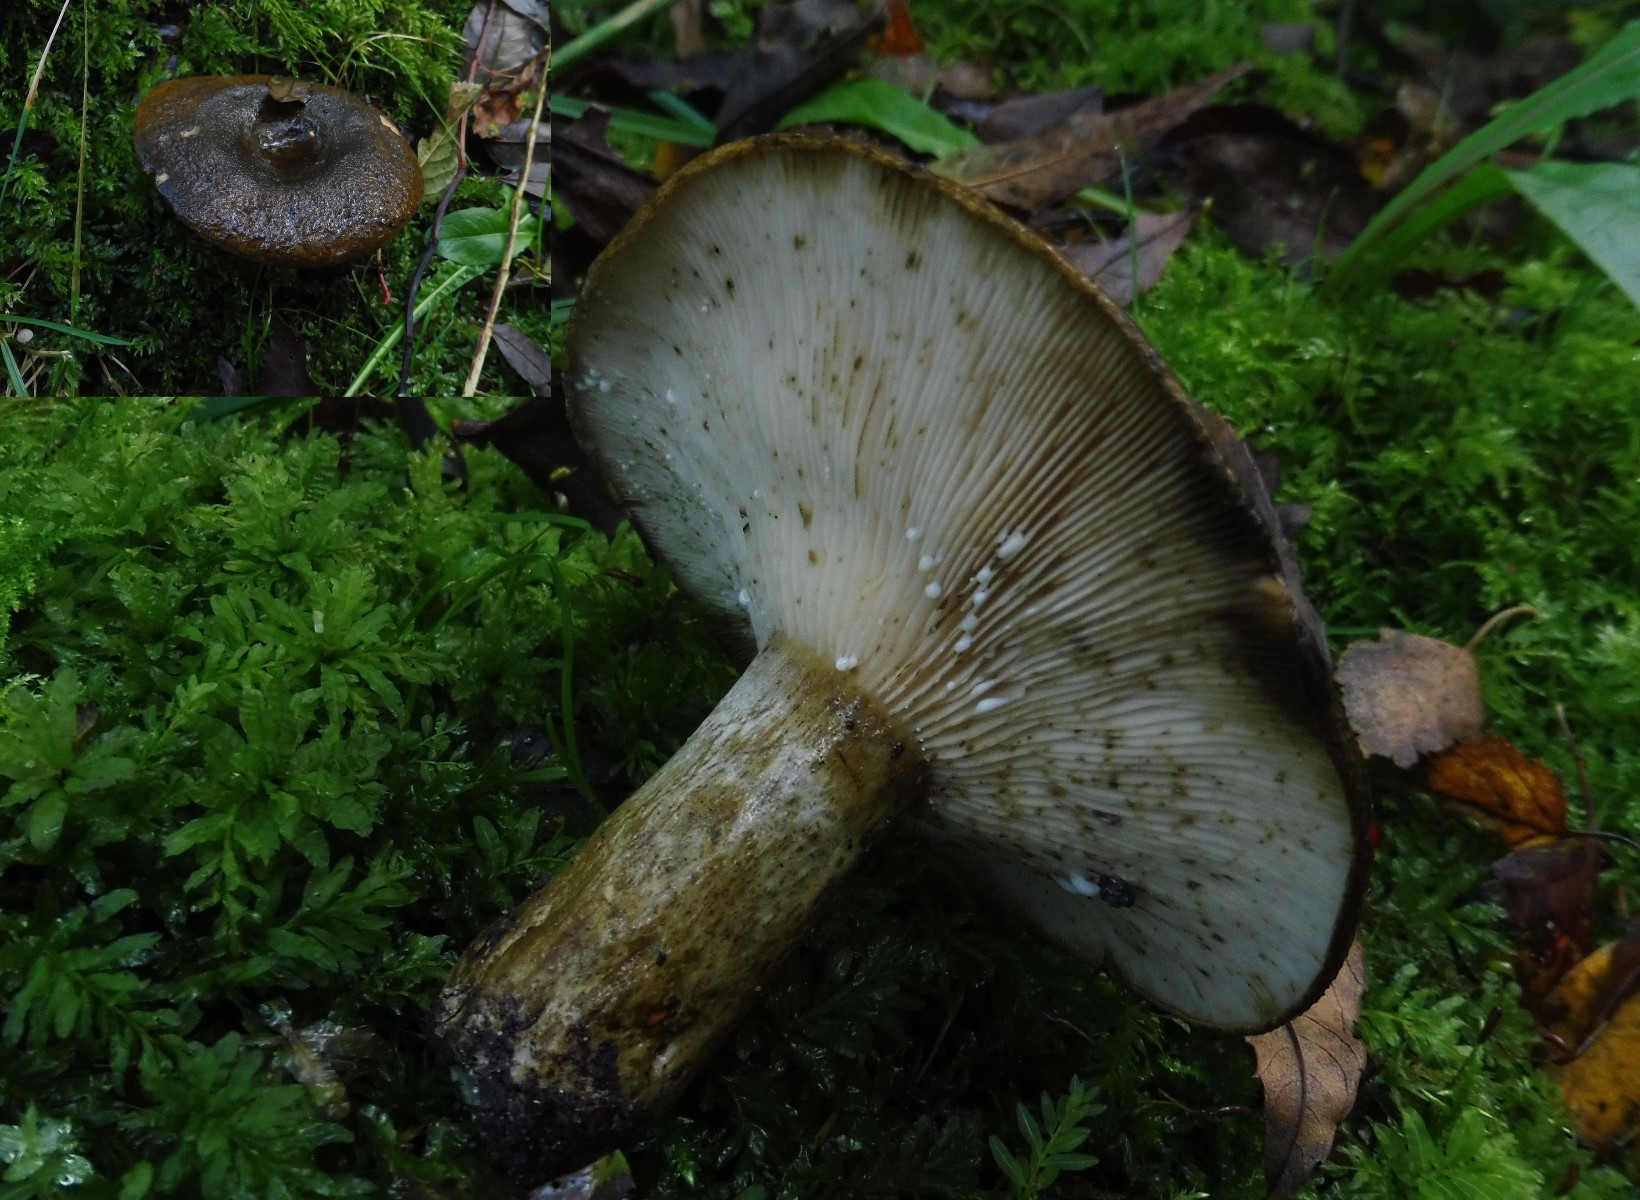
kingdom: Fungi
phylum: Basidiomycota
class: Agaricomycetes
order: Russulales
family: Russulaceae
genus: Lactarius
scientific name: Lactarius necator
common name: manddraber-mælkehat
